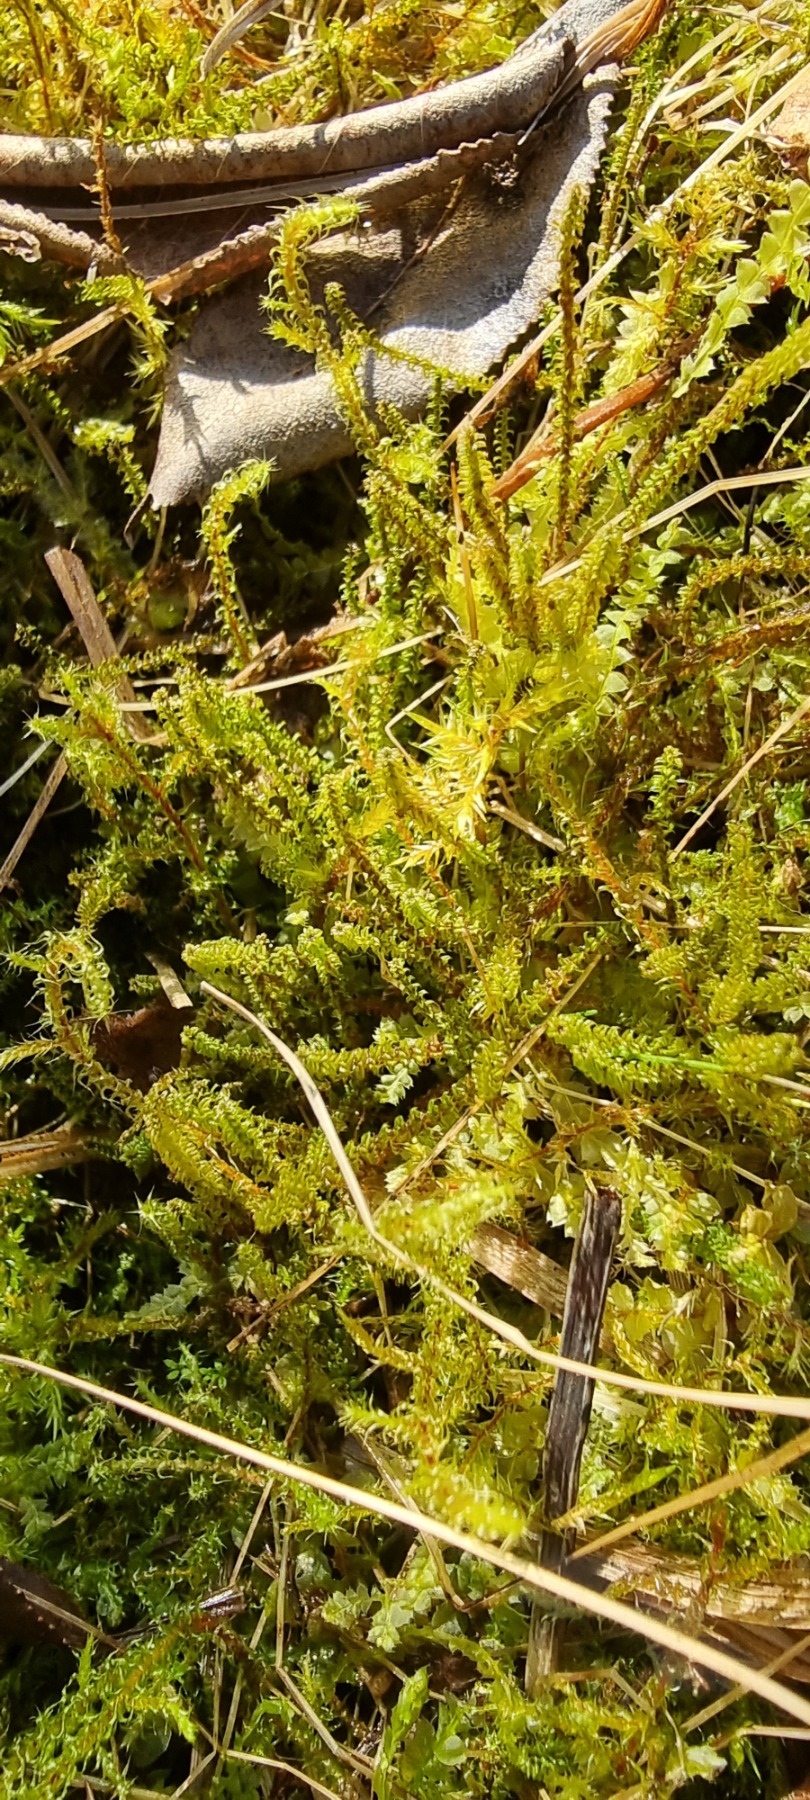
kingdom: Plantae
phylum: Bryophyta
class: Bryopsida
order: Splachnales
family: Meesiaceae
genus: Paludella
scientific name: Paludella squarrosa
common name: Almindelig piberensermos
